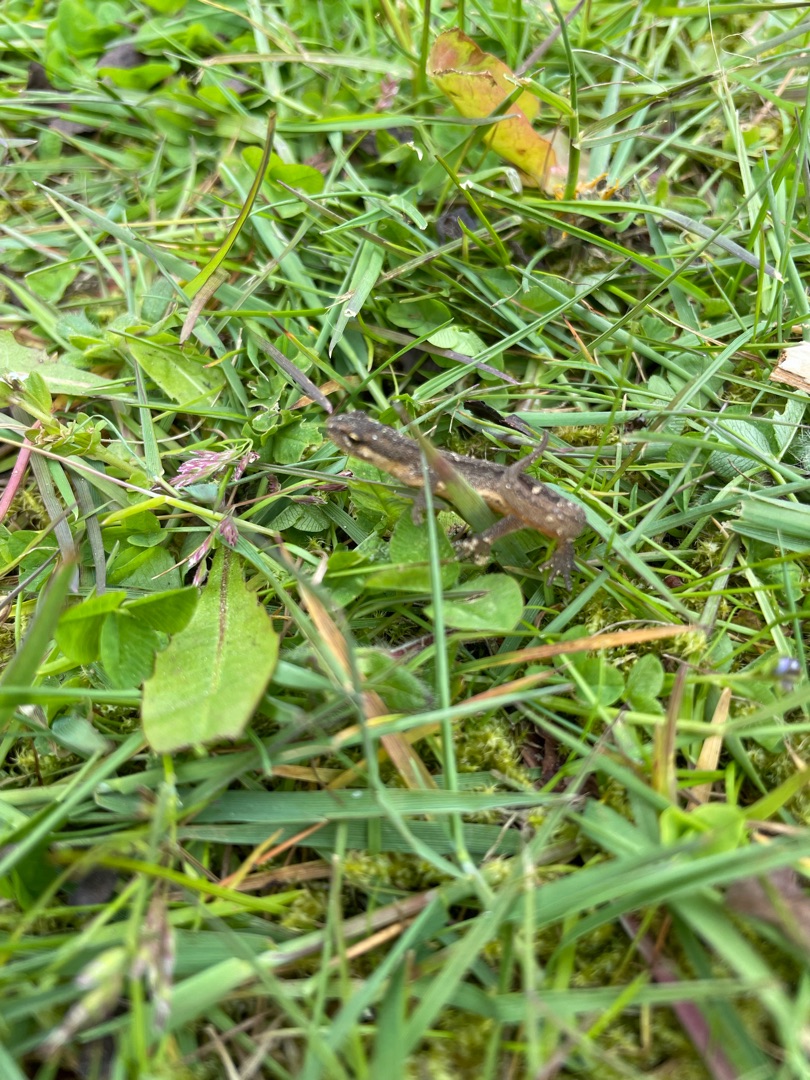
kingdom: Animalia
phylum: Chordata
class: Amphibia
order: Caudata
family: Salamandridae
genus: Lissotriton
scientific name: Lissotriton vulgaris
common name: Lille vandsalamander
